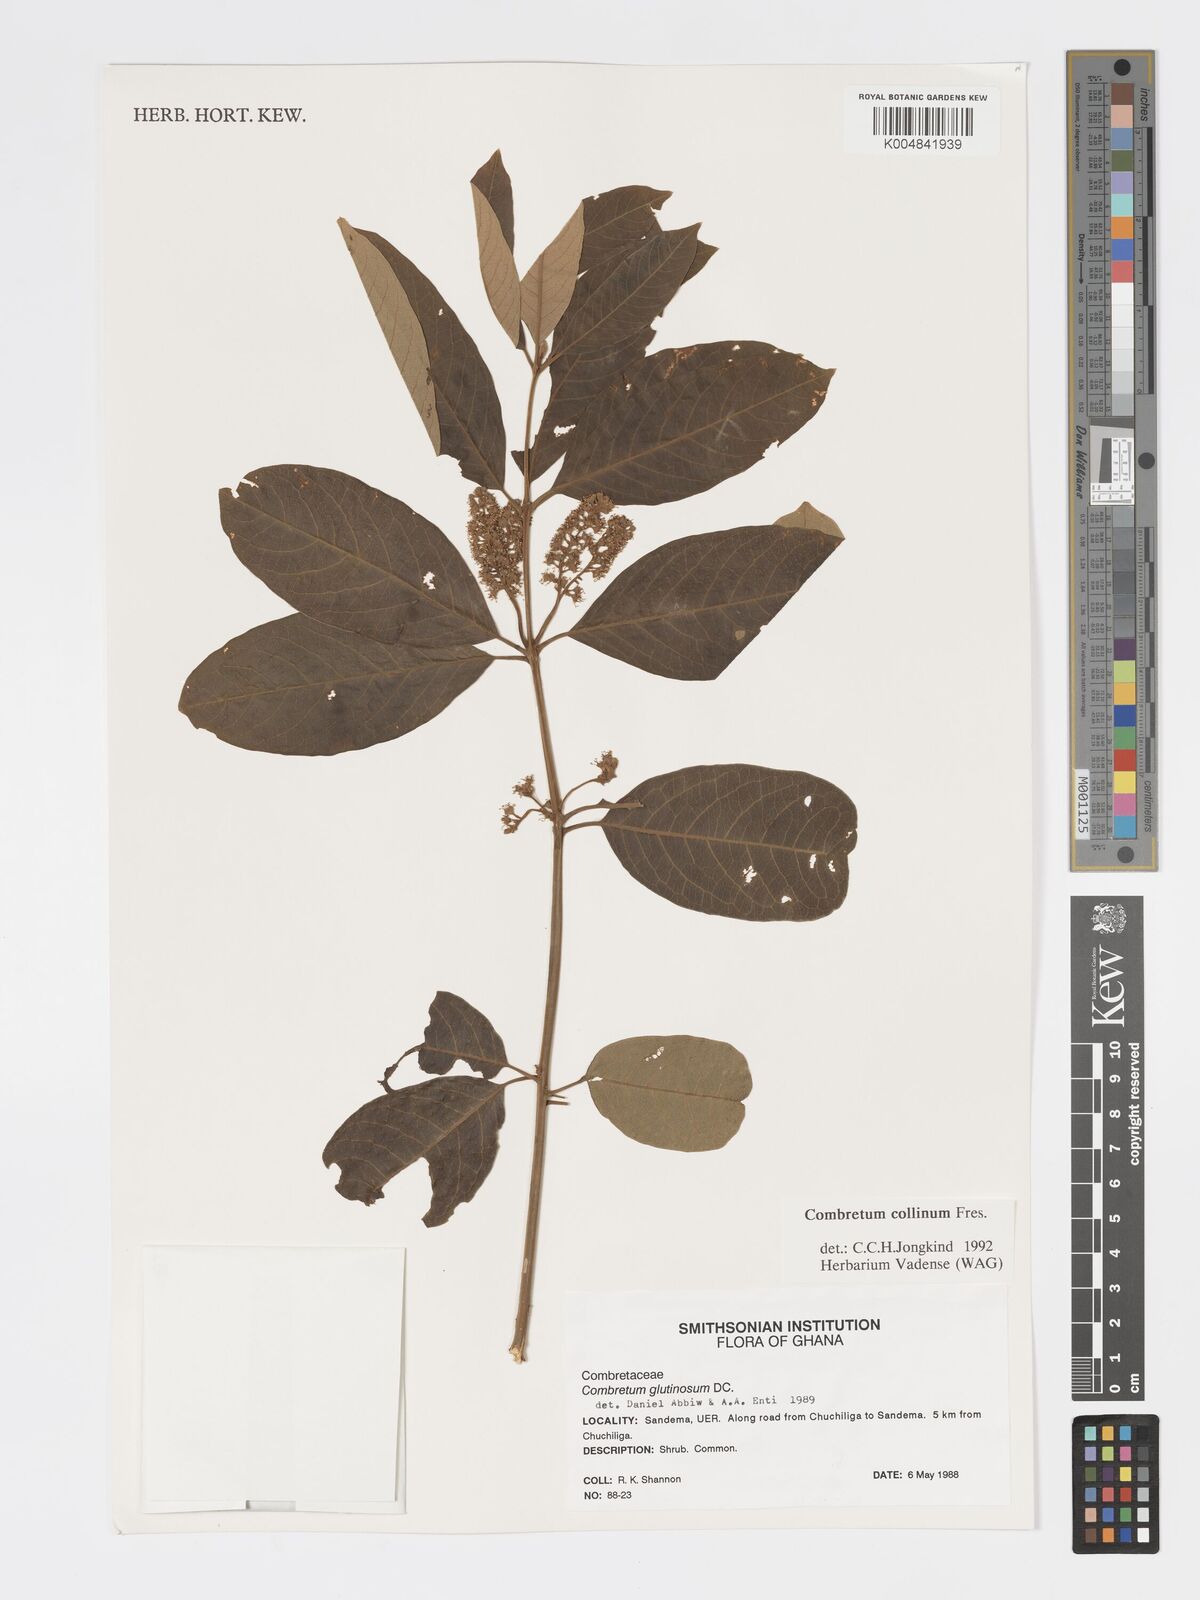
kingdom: Plantae
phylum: Tracheophyta
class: Magnoliopsida
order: Myrtales
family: Combretaceae
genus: Combretum
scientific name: Combretum collinum
